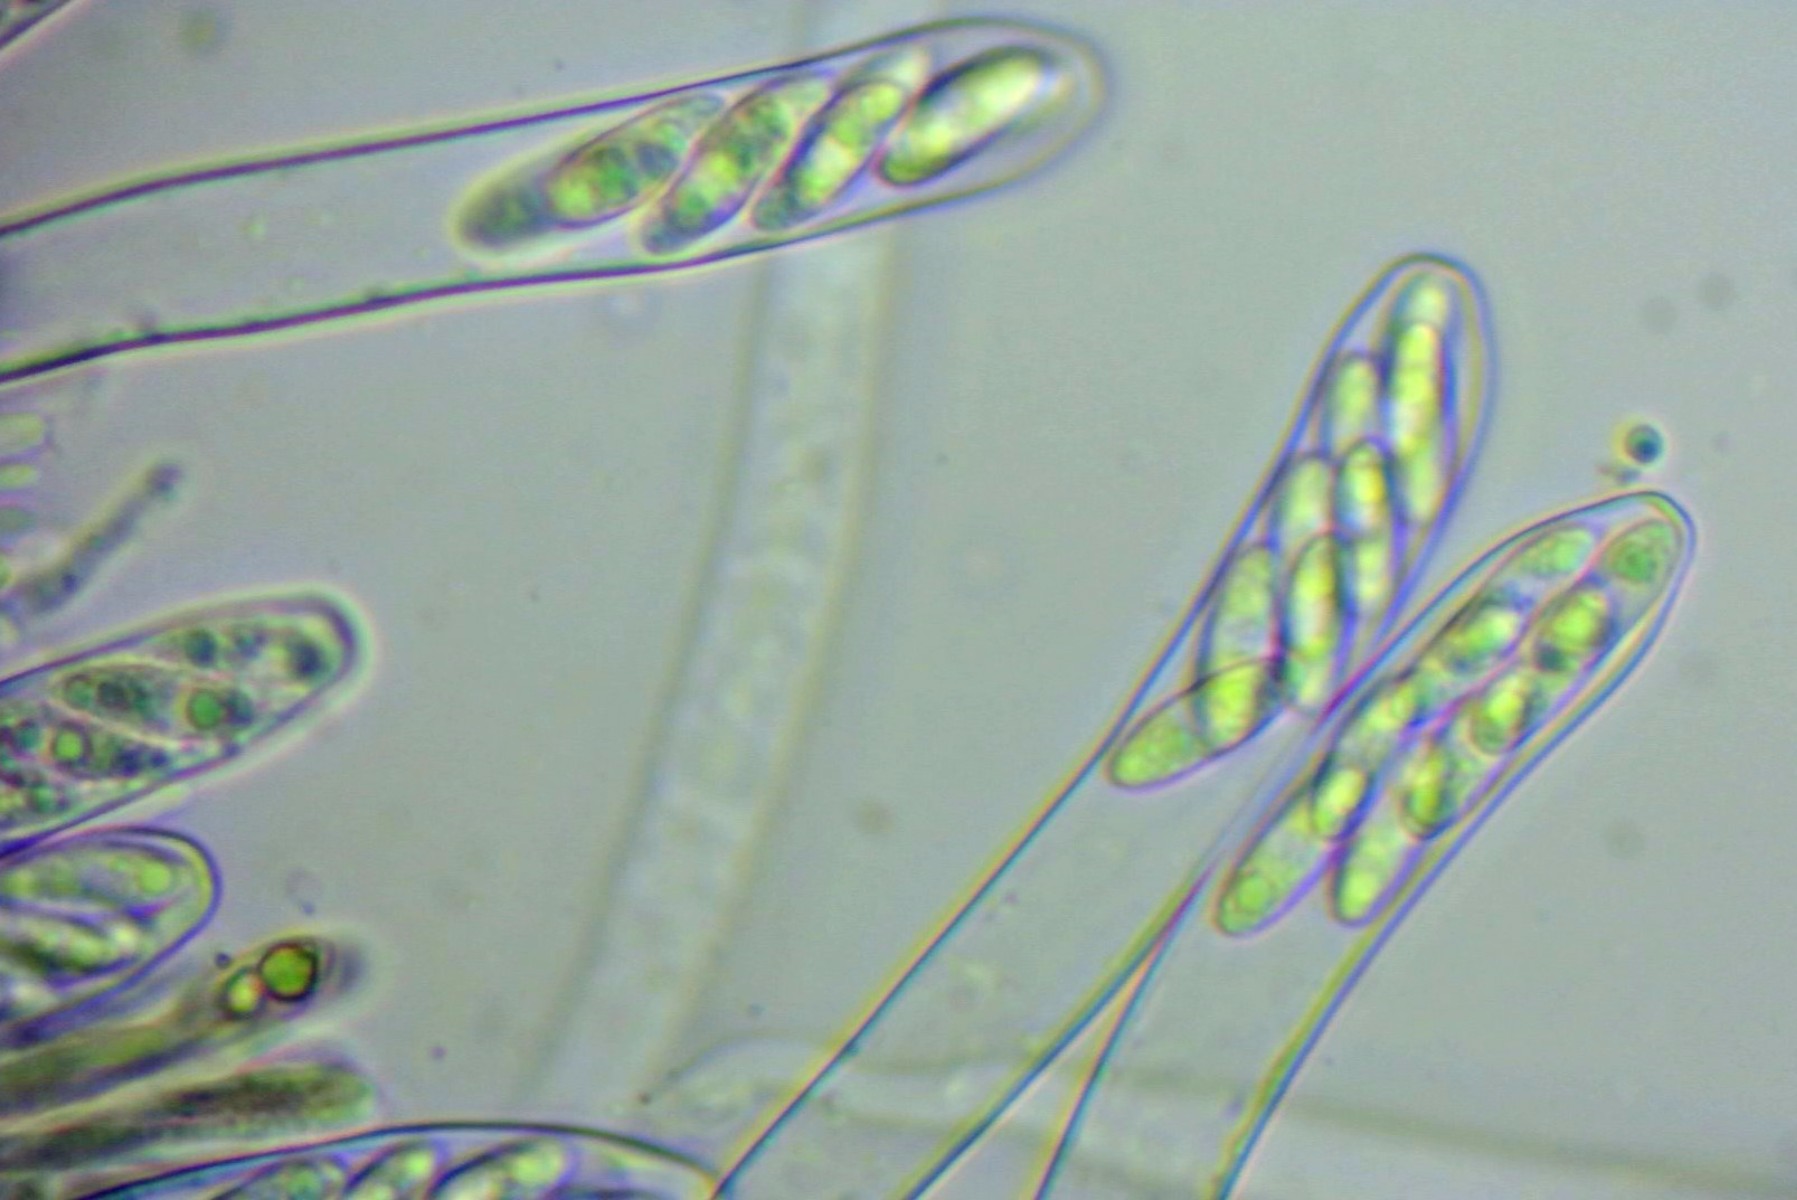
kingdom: Fungi
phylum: Ascomycota
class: Leotiomycetes
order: Helotiales
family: Rutstroemiaceae
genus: Rutstroemia
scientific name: Rutstroemia firma
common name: gren-brunskive
